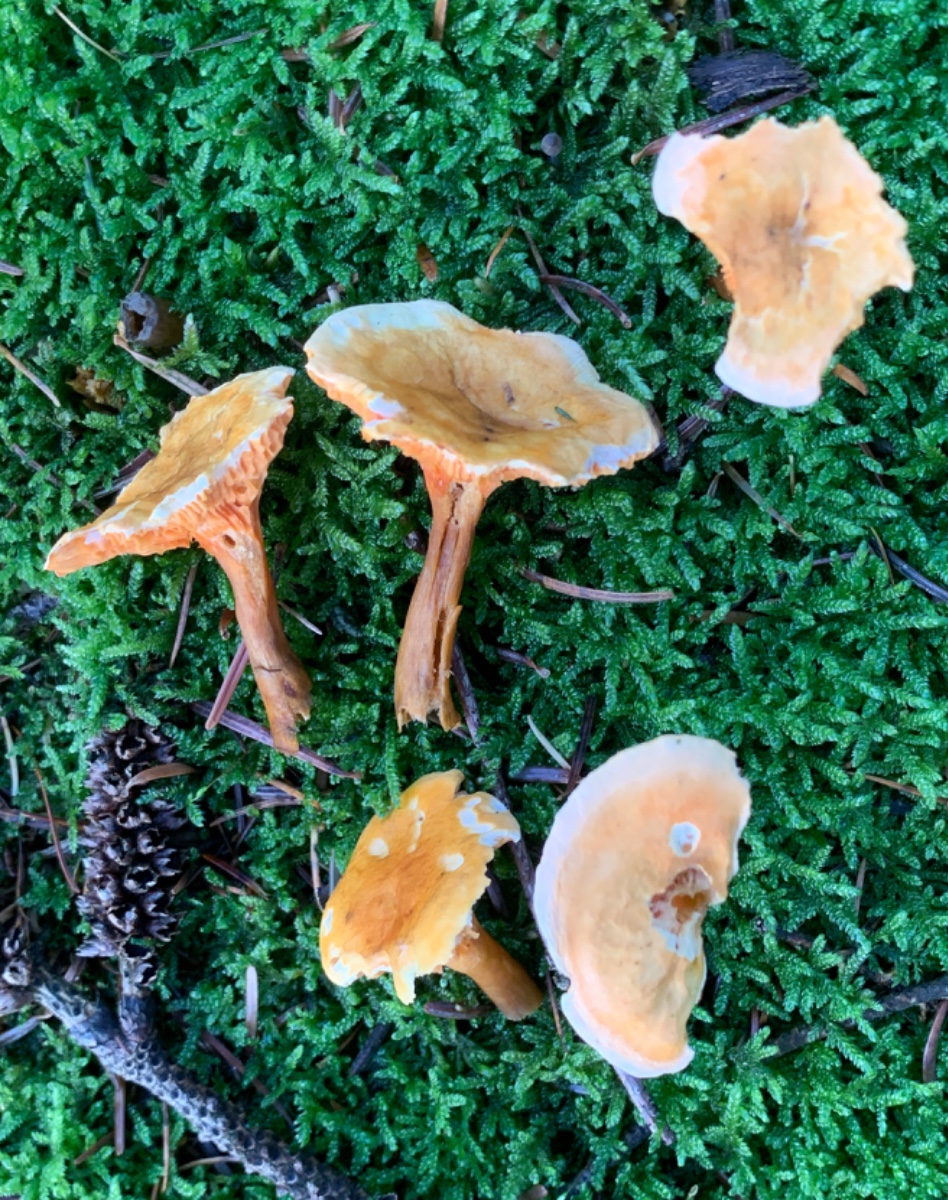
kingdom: Fungi
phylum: Basidiomycota
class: Agaricomycetes
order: Boletales
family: Hygrophoropsidaceae
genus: Hygrophoropsis
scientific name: Hygrophoropsis aurantiaca
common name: almindelig orangekantarel
